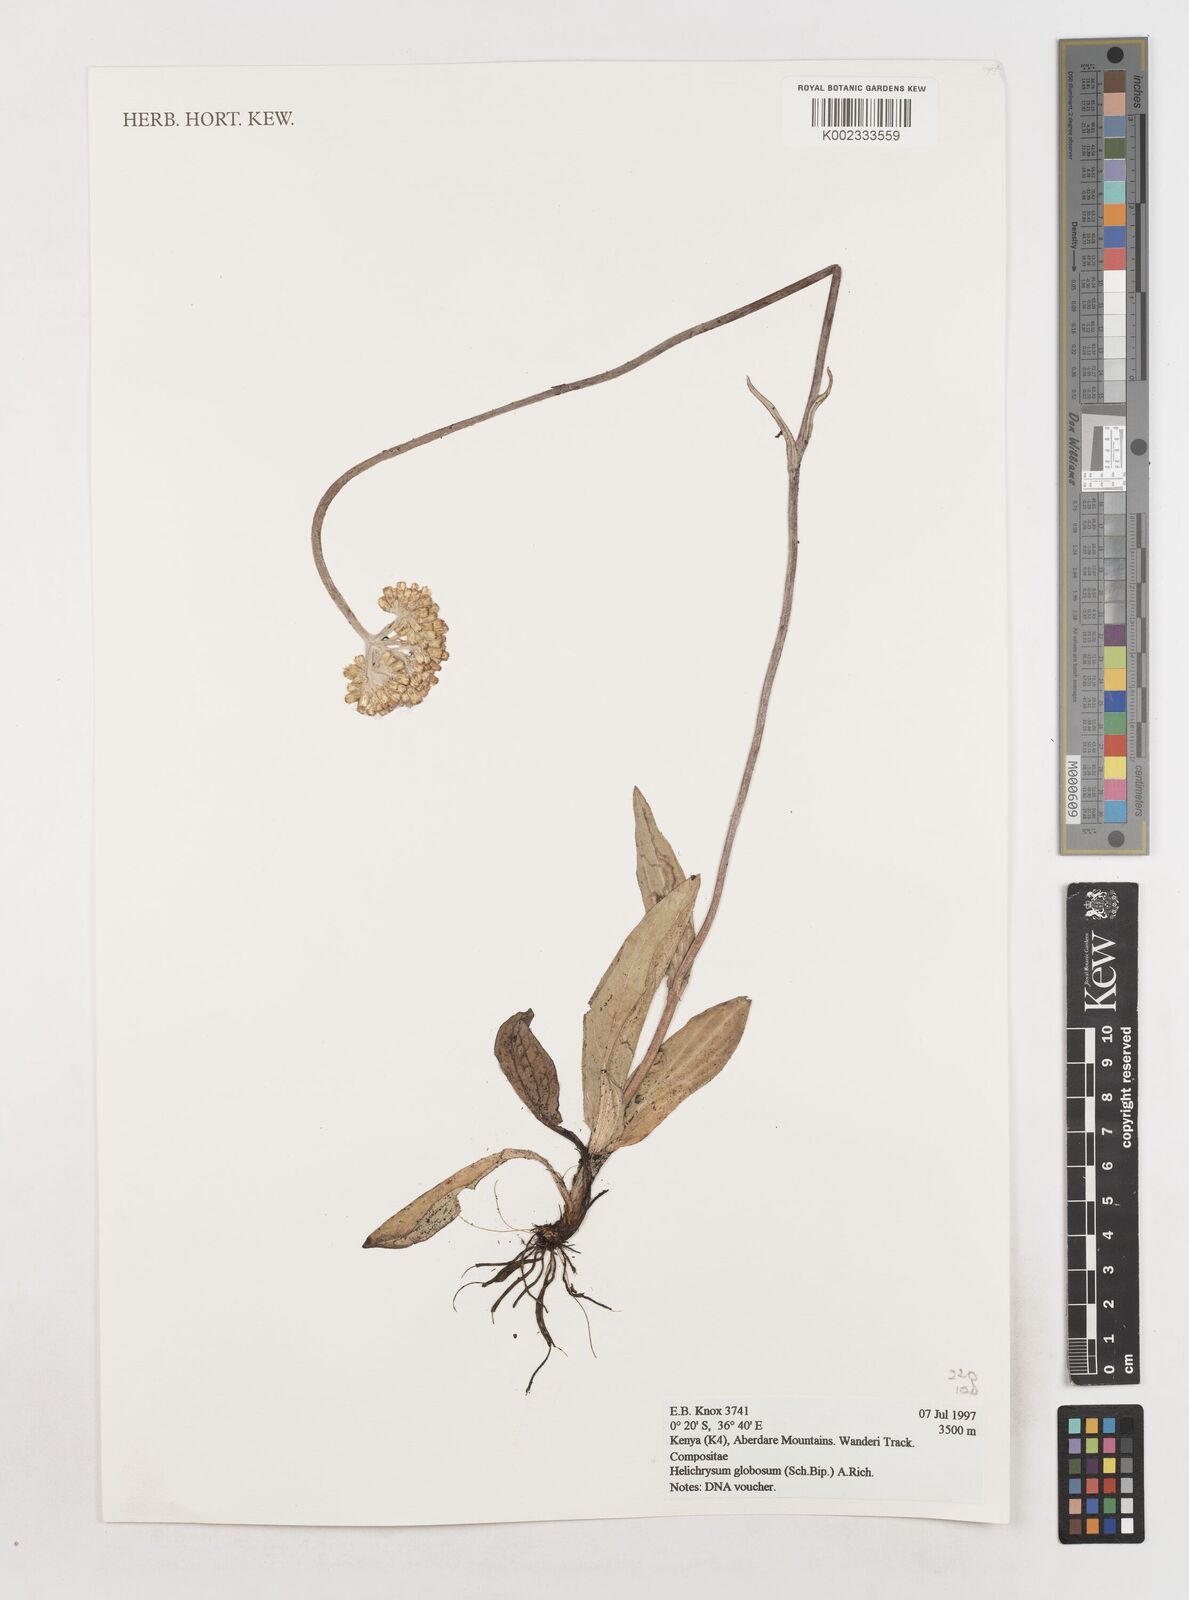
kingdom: Plantae
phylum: Tracheophyta
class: Magnoliopsida
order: Asterales
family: Asteraceae
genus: Helichrysum
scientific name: Helichrysum globosum
